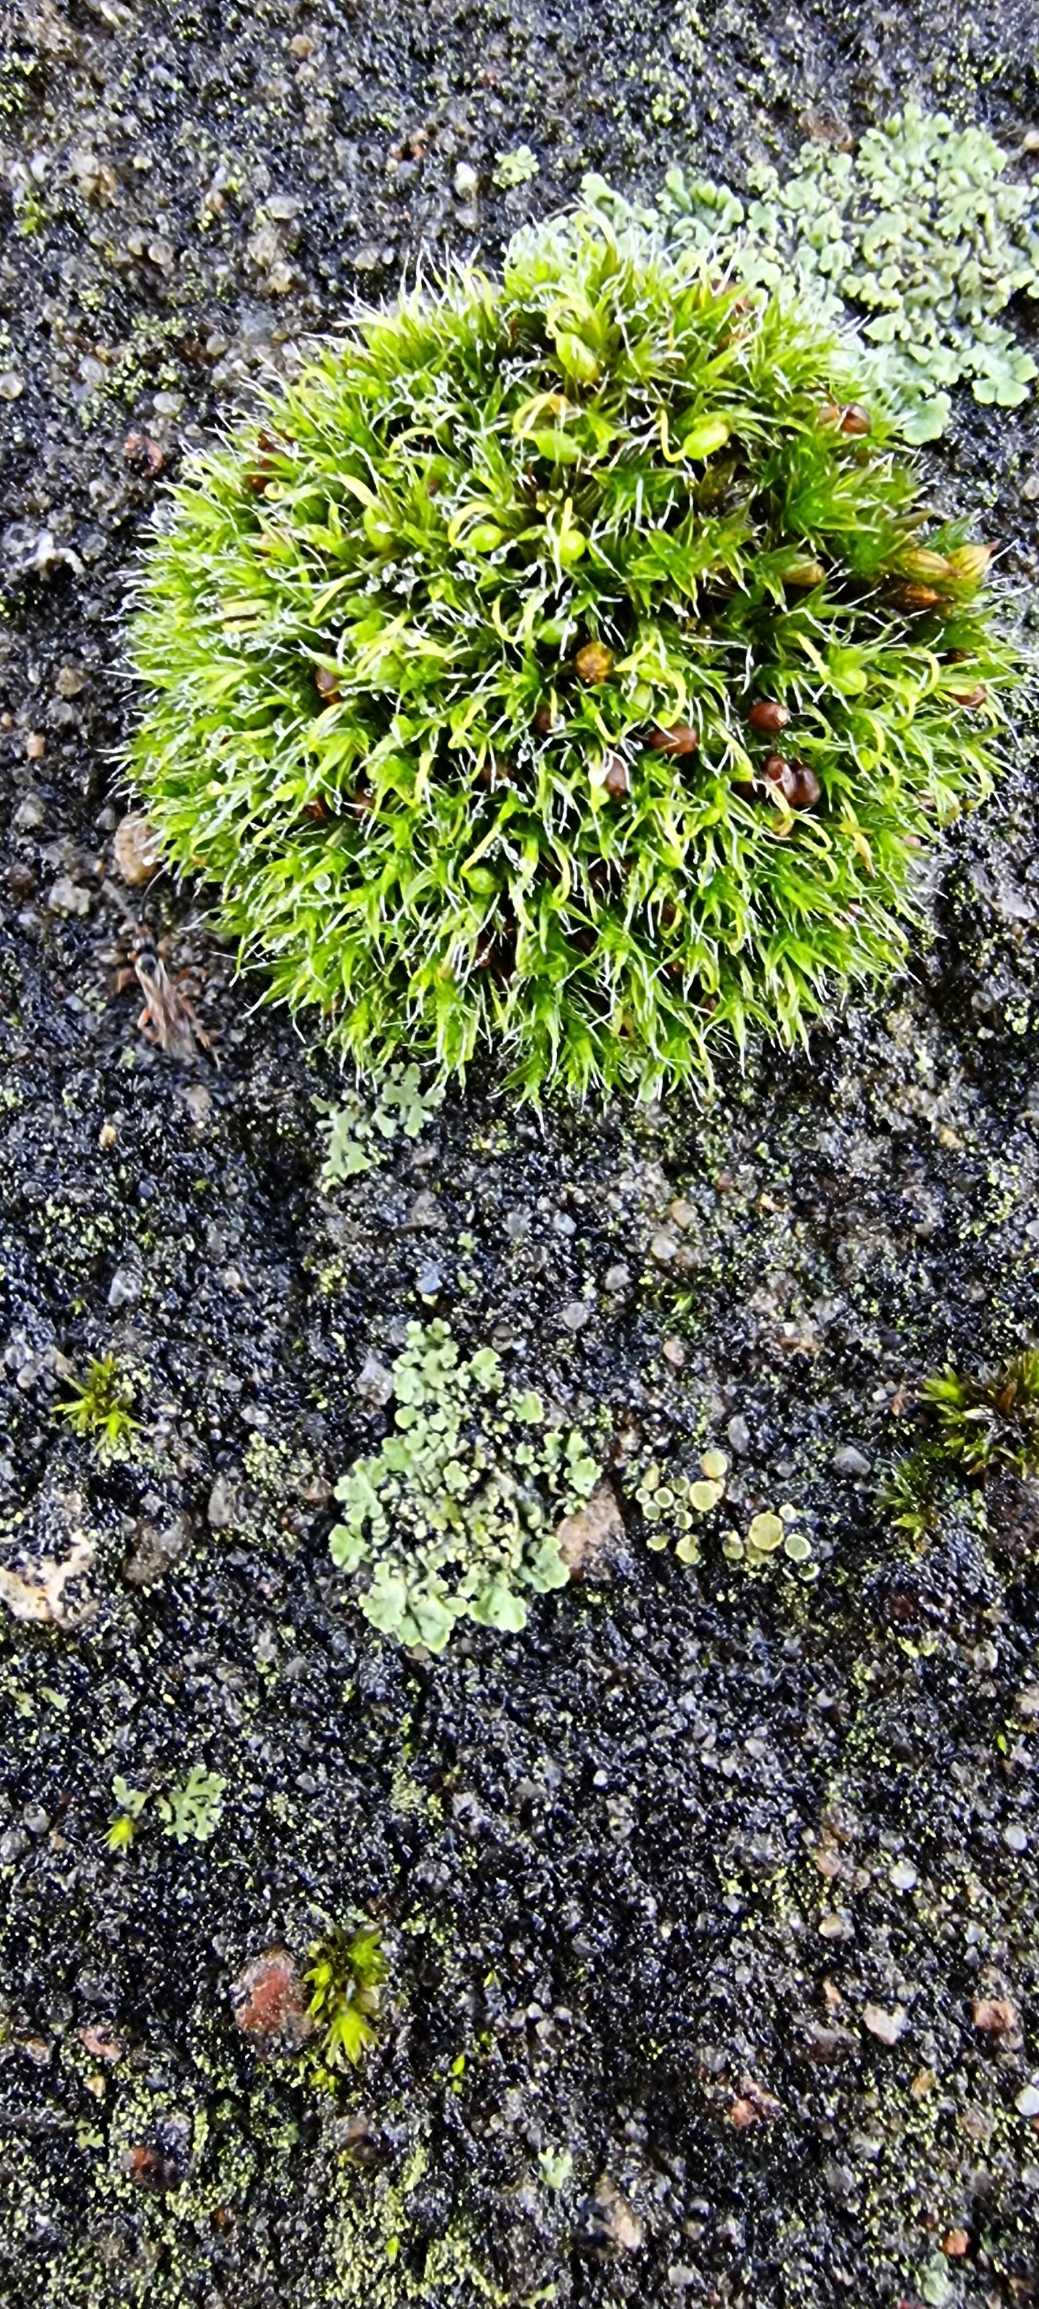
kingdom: Plantae
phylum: Bryophyta
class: Bryopsida
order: Grimmiales
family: Grimmiaceae
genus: Grimmia
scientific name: Grimmia pulvinata
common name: Pude-gråmos
